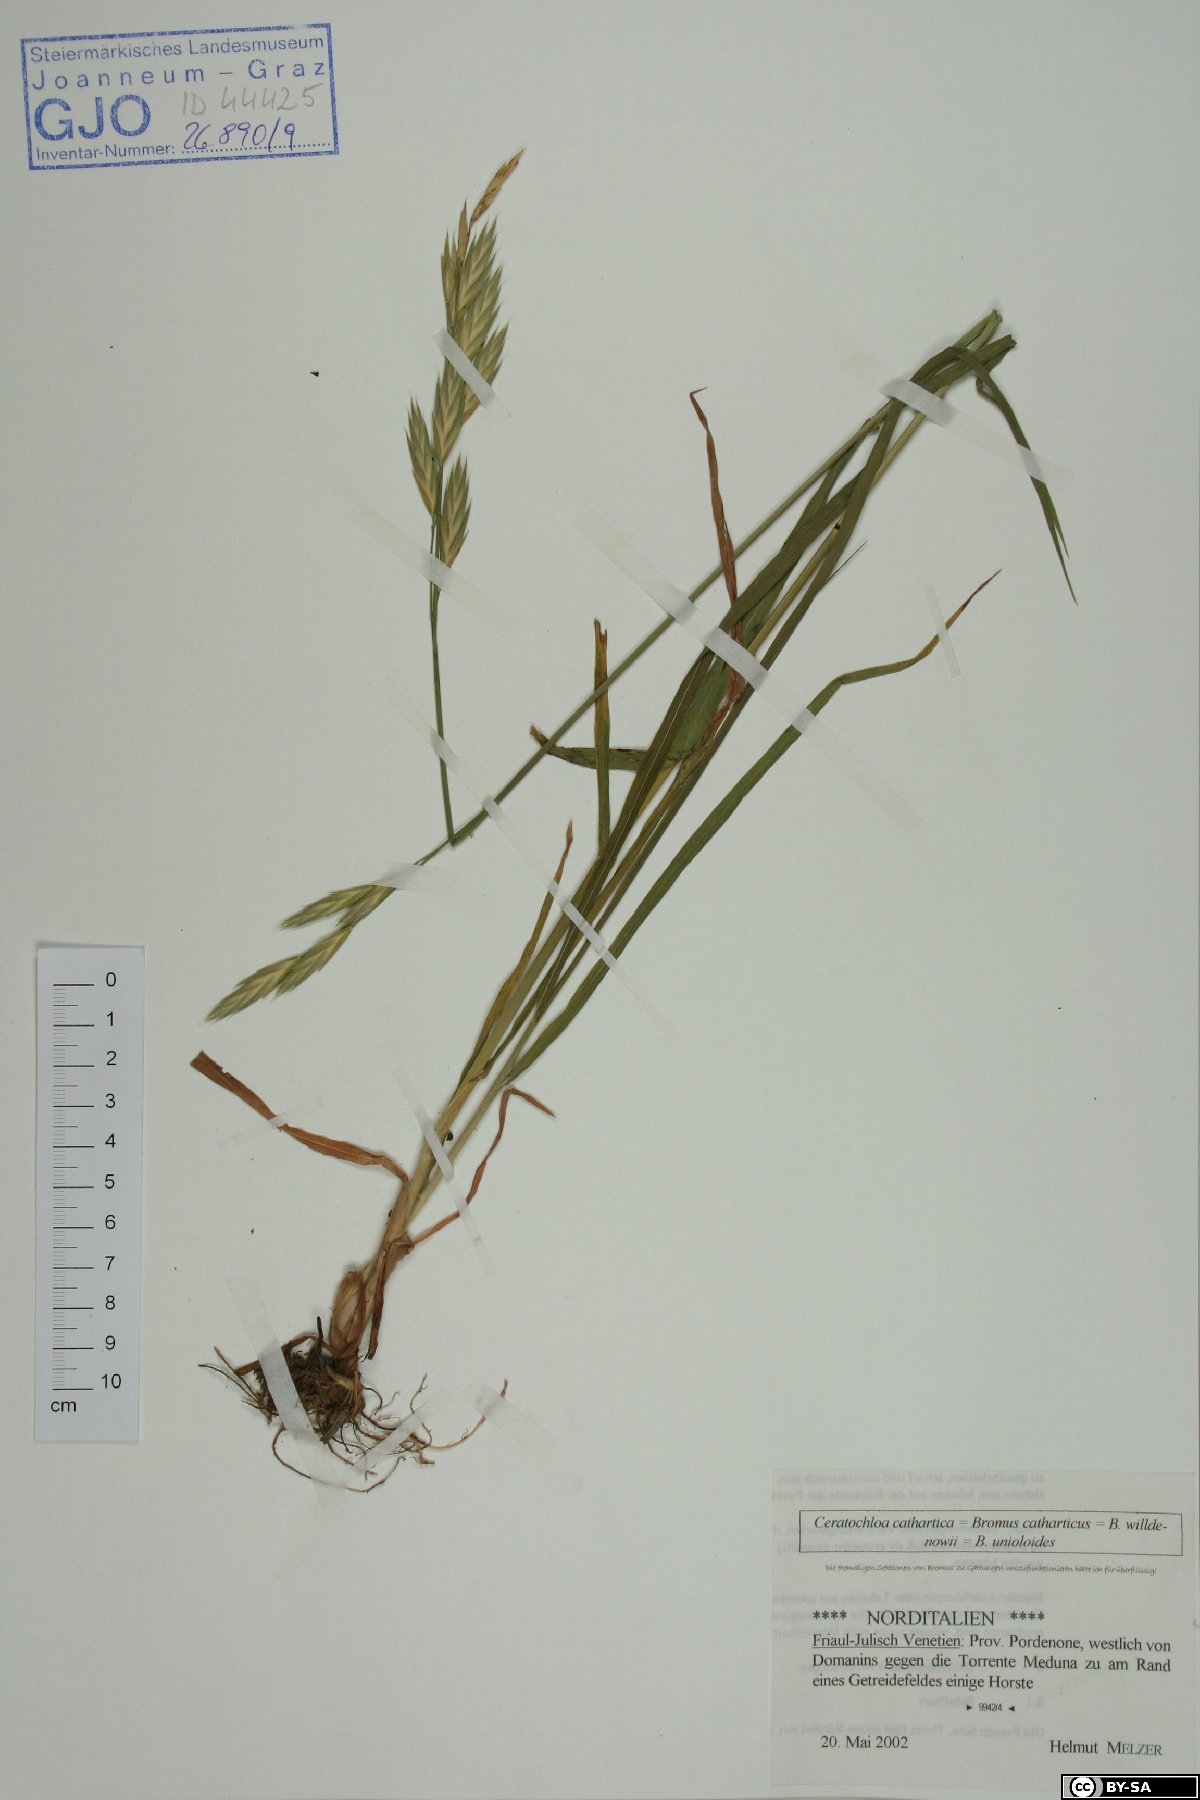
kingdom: Plantae
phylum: Tracheophyta
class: Liliopsida
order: Poales
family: Poaceae
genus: Bromus
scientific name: Bromus catharticus
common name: Rescuegrass
